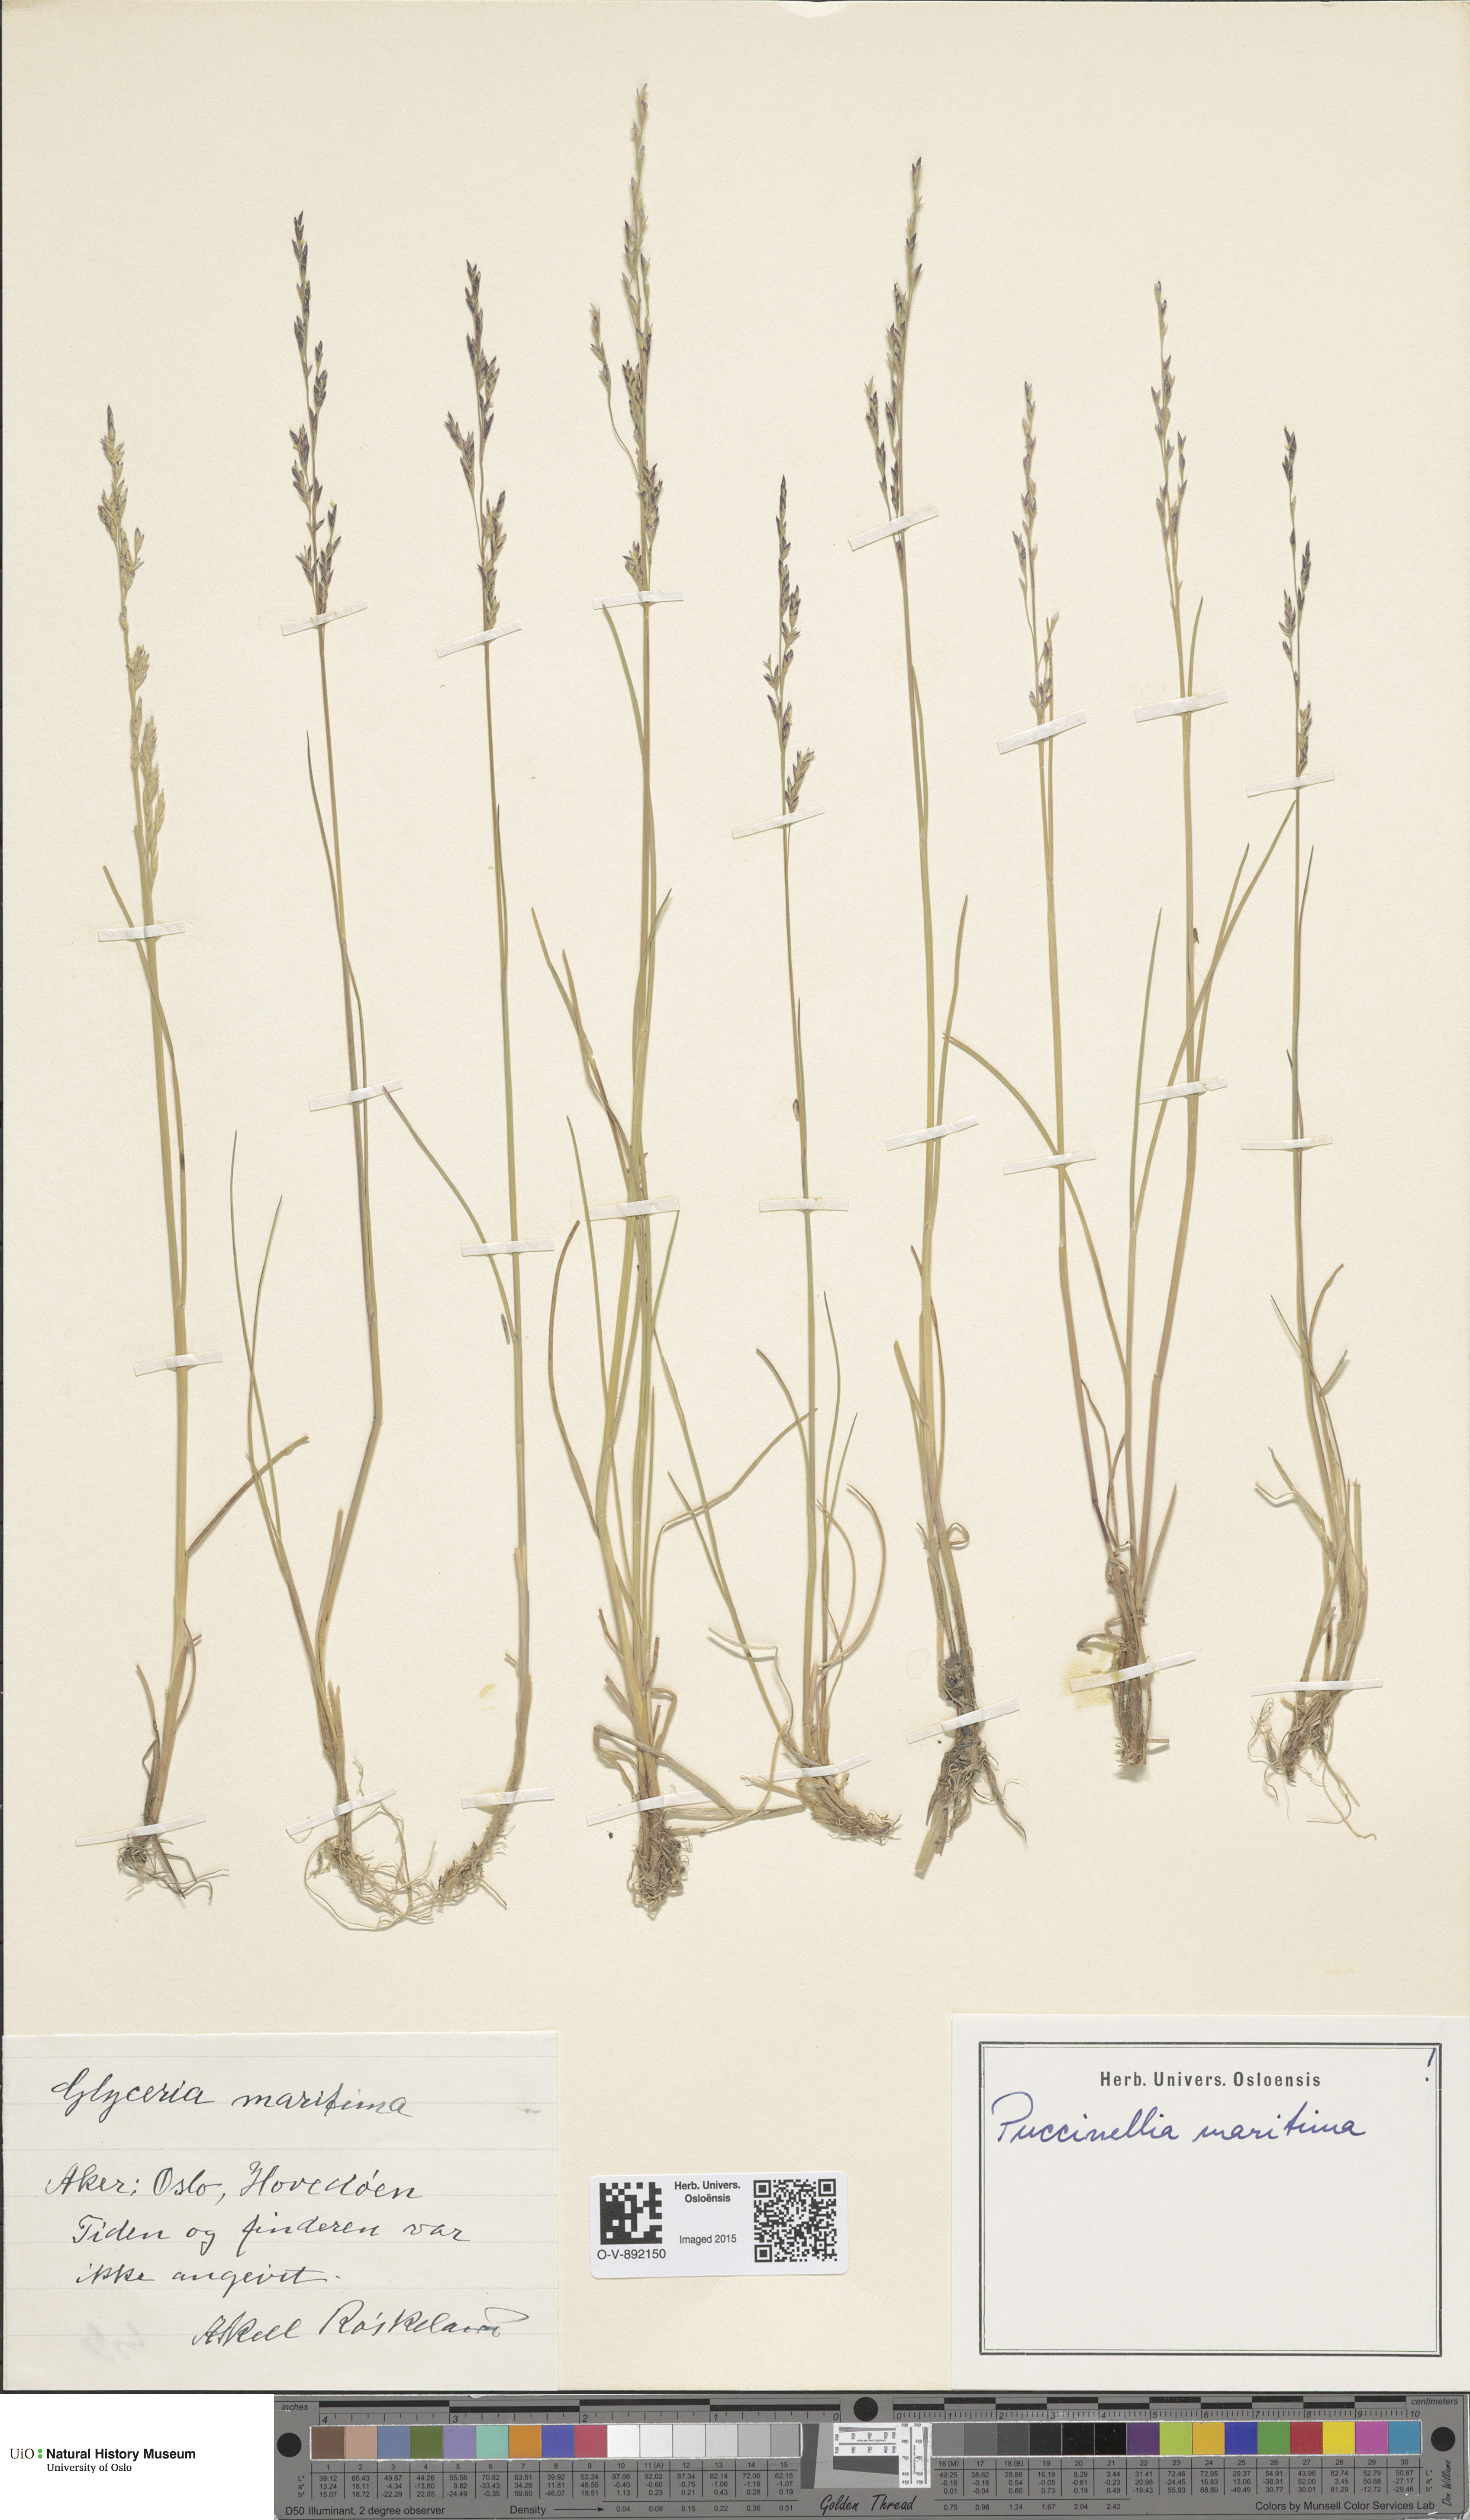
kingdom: Plantae
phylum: Tracheophyta
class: Liliopsida
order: Poales
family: Poaceae
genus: Puccinellia
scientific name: Puccinellia maritima
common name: Common saltmarsh grass
